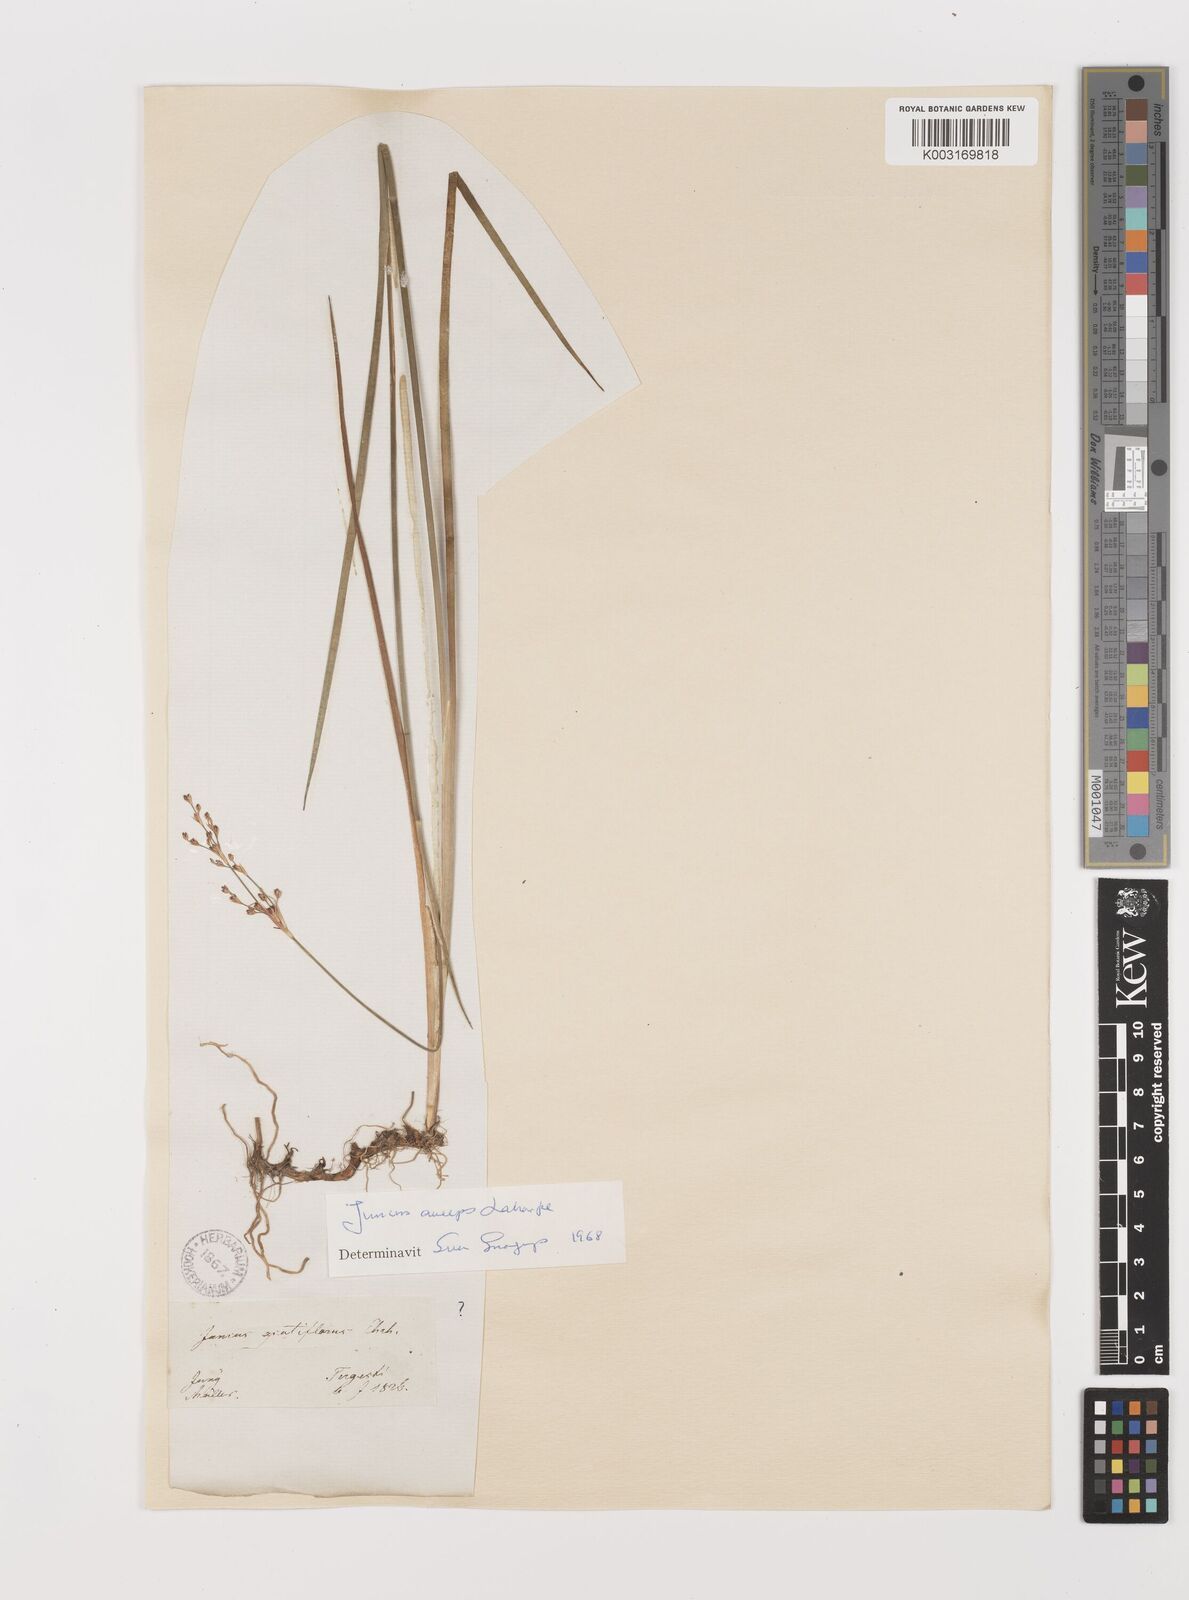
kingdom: Plantae
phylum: Tracheophyta
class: Liliopsida
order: Poales
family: Juncaceae
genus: Juncus
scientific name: Juncus anceps
